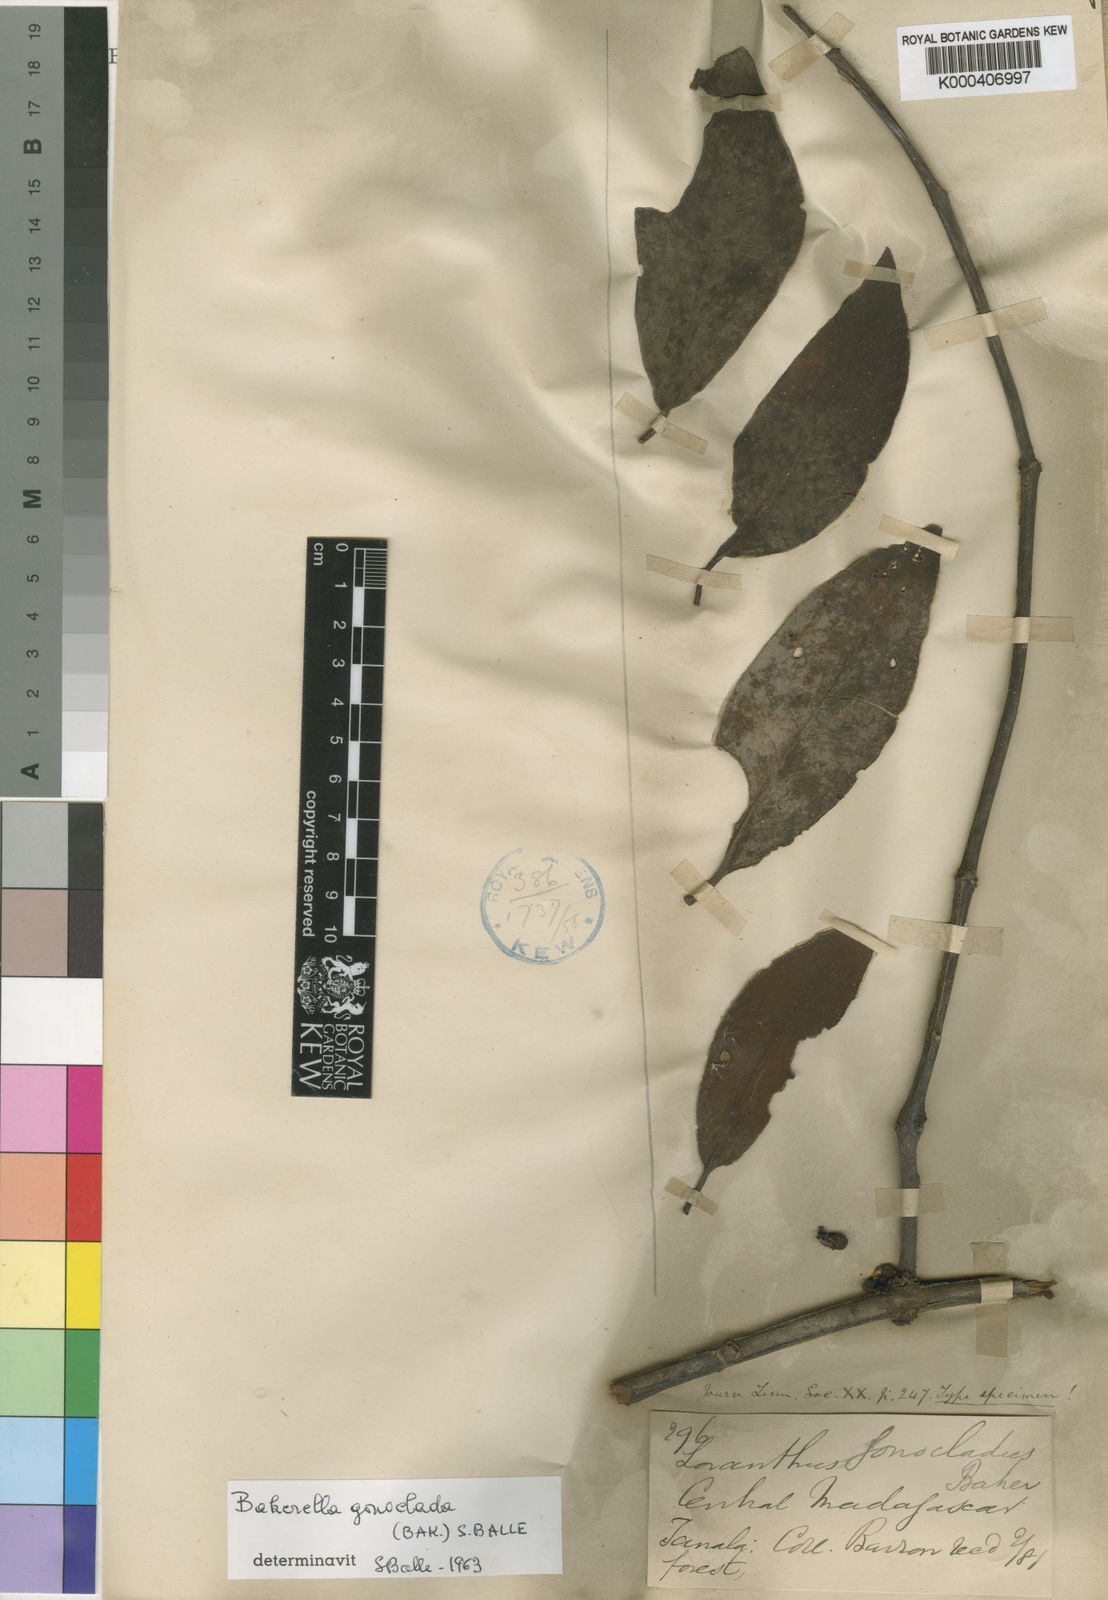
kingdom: Plantae
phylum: Tracheophyta
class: Magnoliopsida
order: Santalales
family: Loranthaceae
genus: Bakerella
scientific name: Bakerella gonoclada
